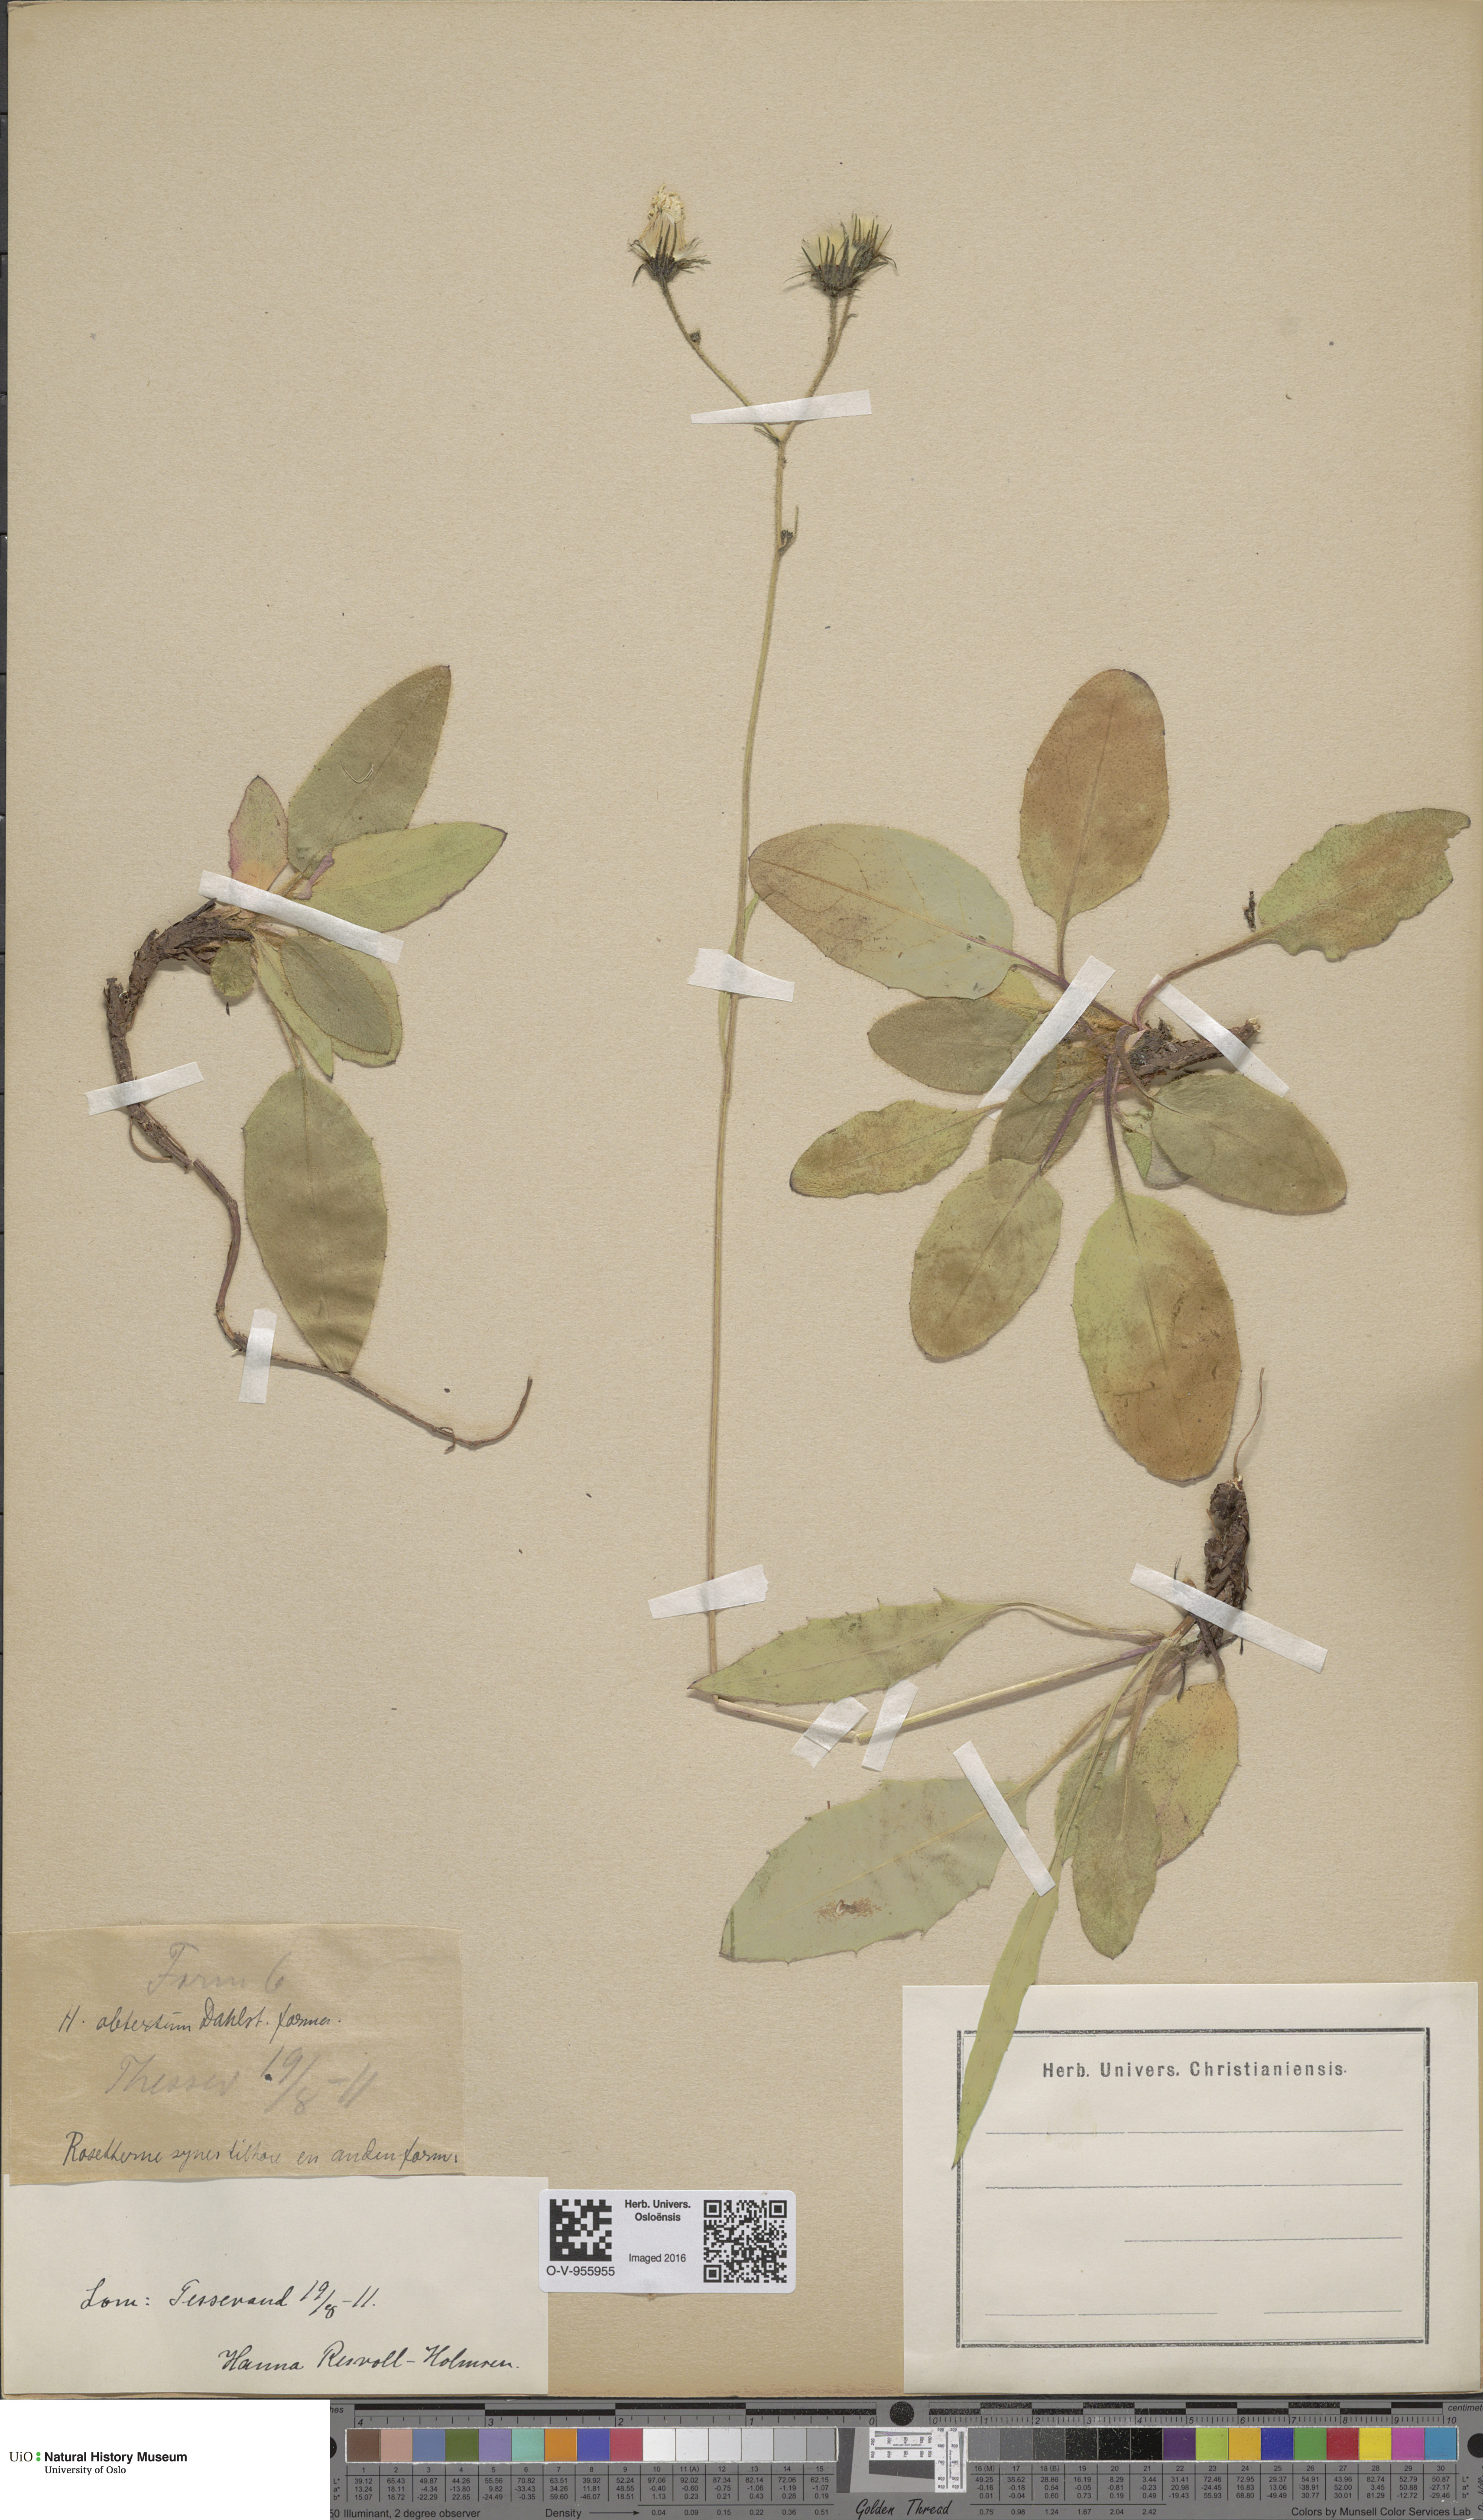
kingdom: Plantae
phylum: Tracheophyta
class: Magnoliopsida
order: Asterales
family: Asteraceae
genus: Hieracium
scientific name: Hieracium obtextum
